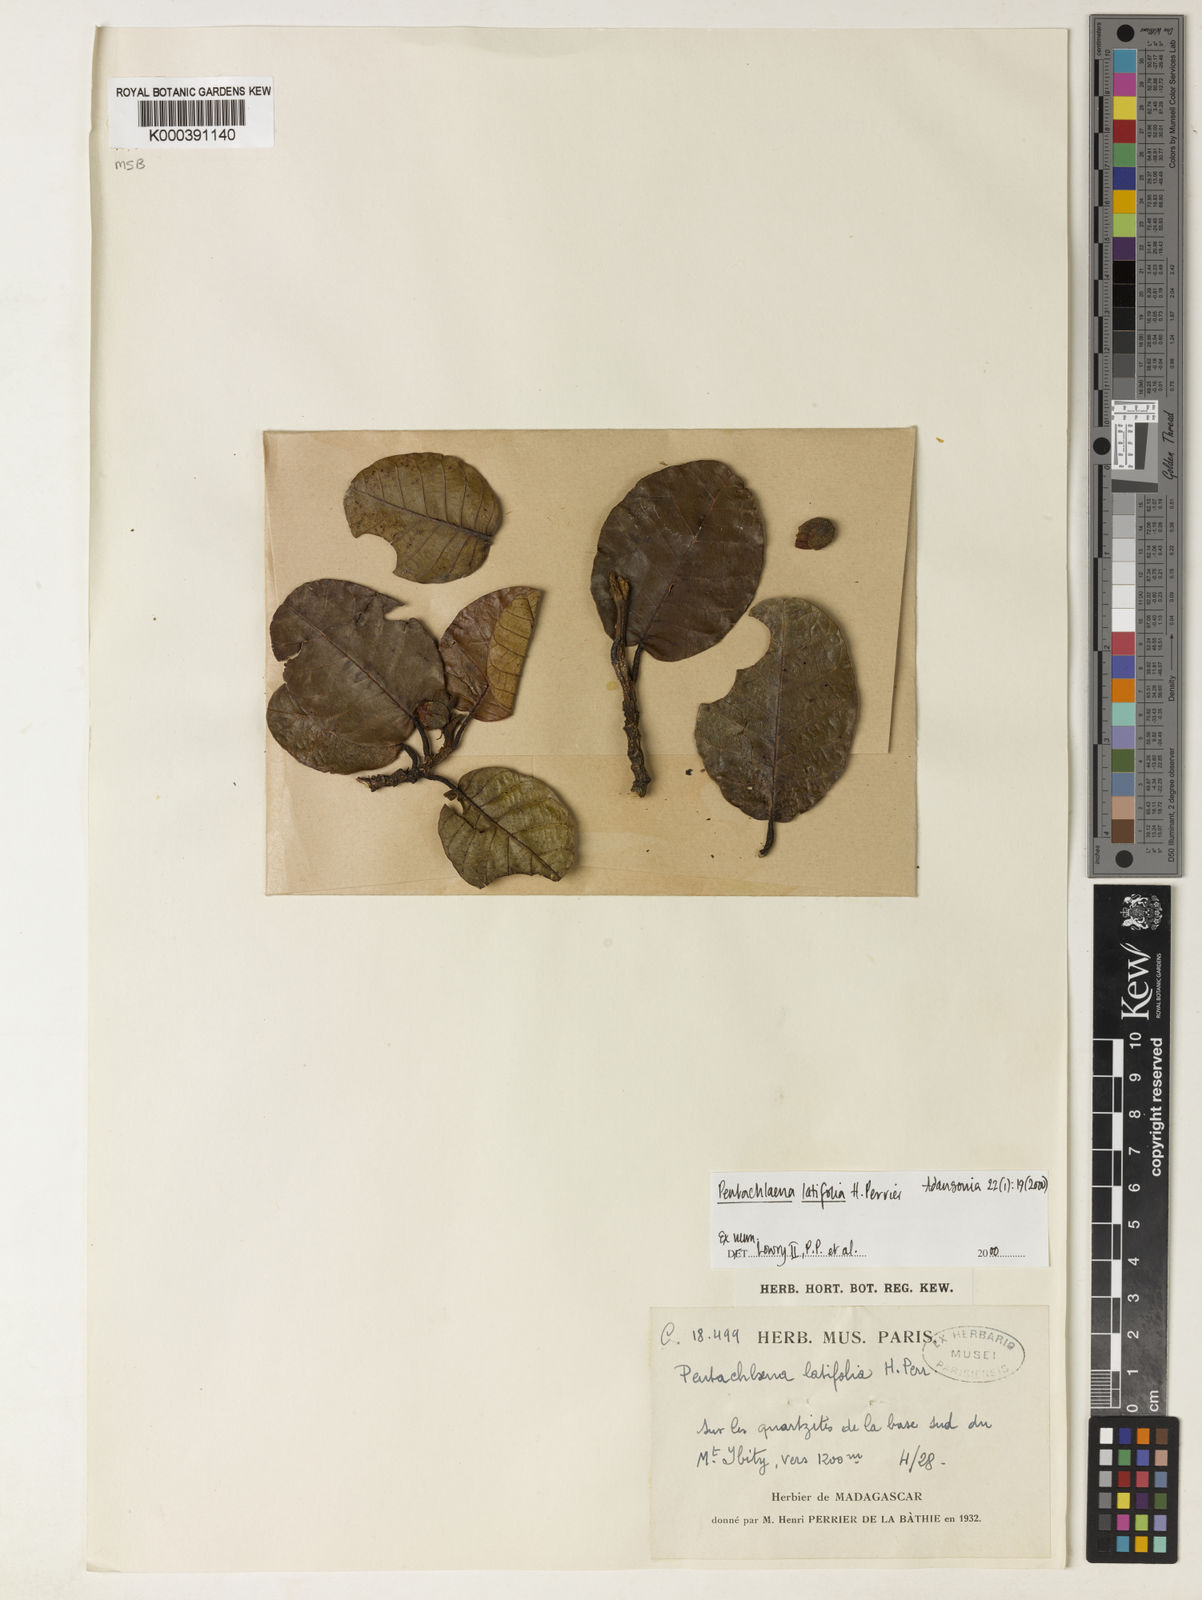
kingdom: Plantae
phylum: Tracheophyta
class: Magnoliopsida
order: Malvales
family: Sarcolaenaceae
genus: Pentachlaena
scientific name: Pentachlaena latifolia
